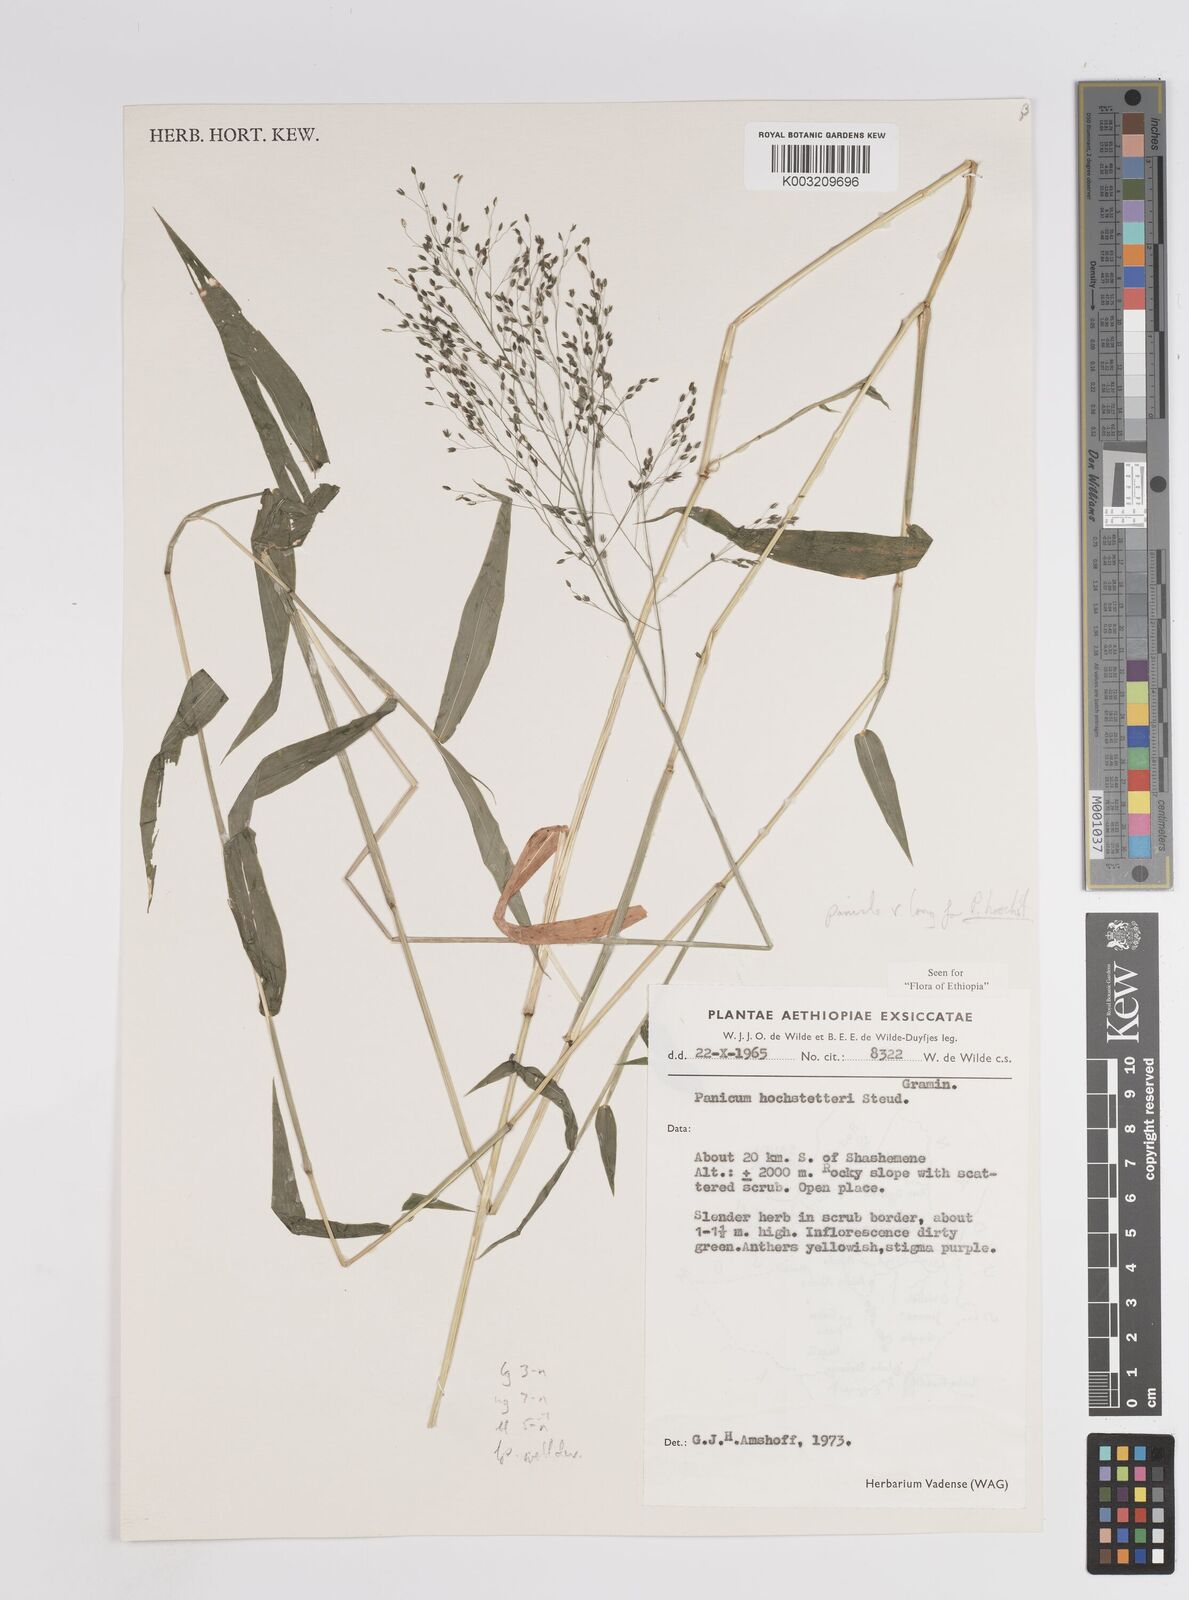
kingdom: Plantae
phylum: Tracheophyta
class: Liliopsida
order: Poales
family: Poaceae
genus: Panicum
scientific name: Panicum hochstetteri
